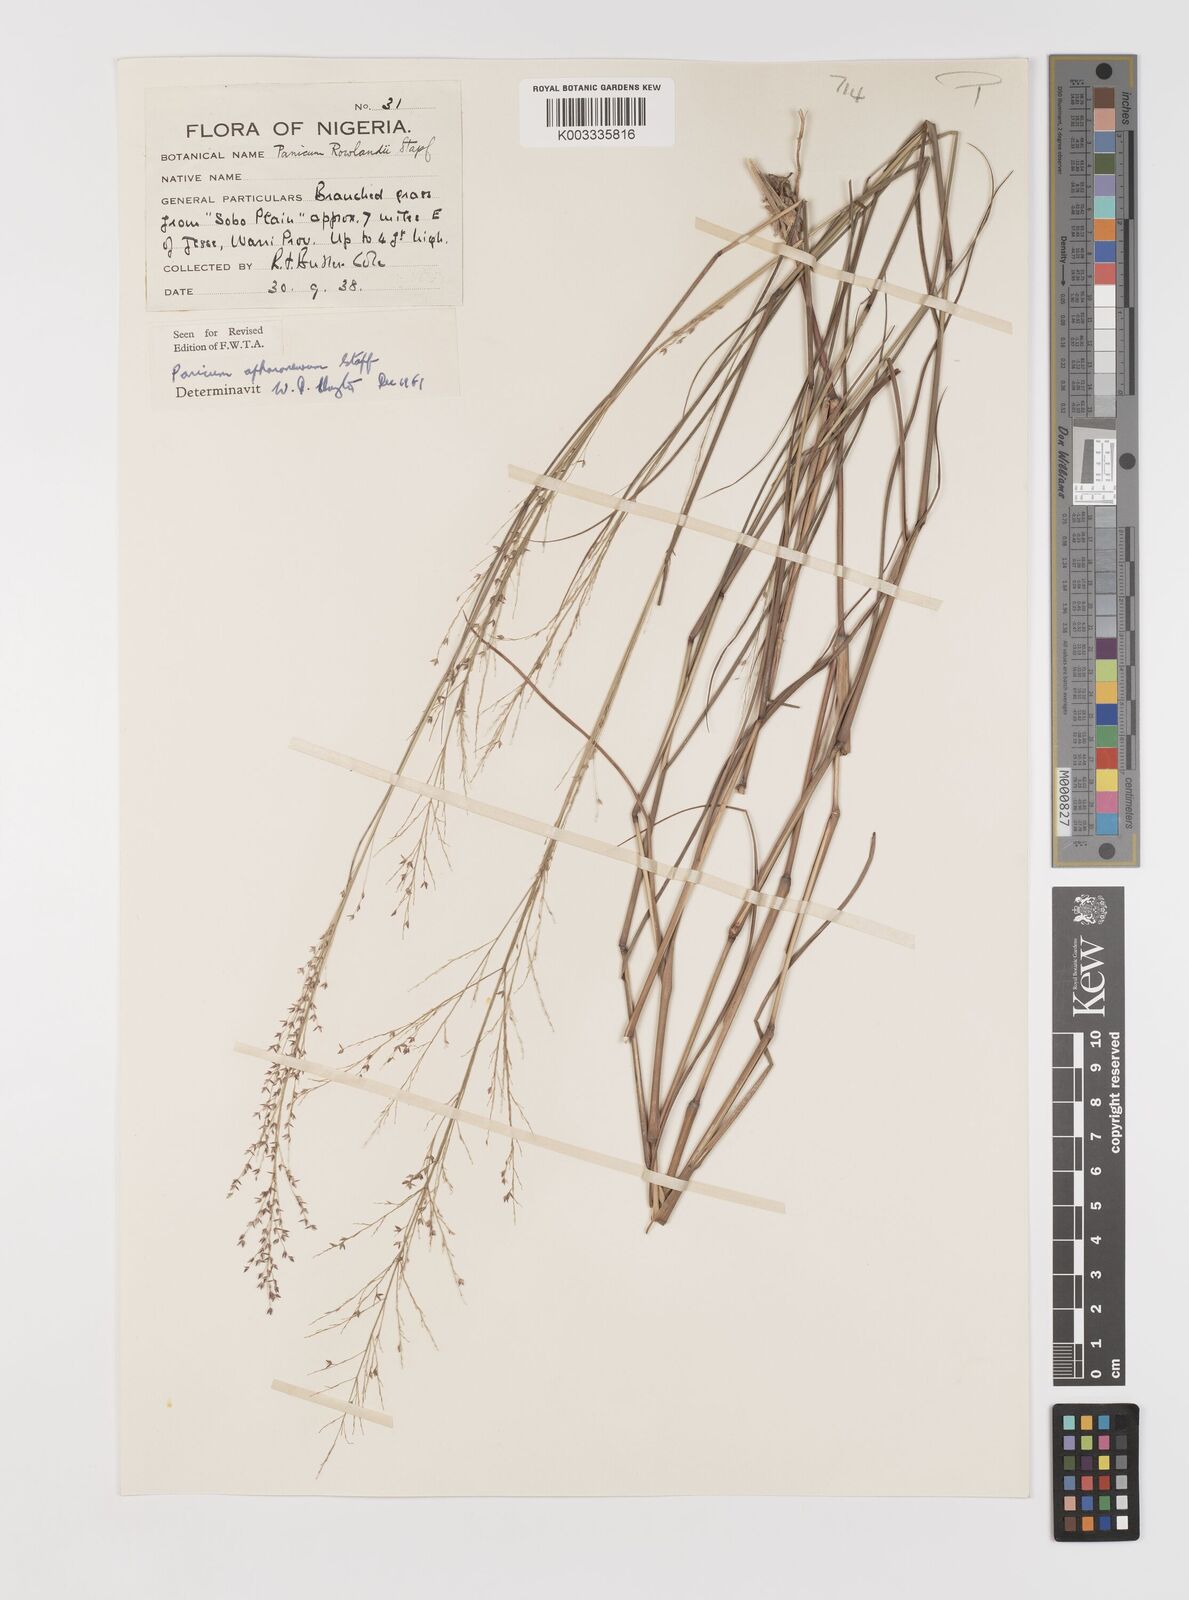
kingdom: Plantae
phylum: Tracheophyta
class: Liliopsida
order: Poales
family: Poaceae
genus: Panicum
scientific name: Panicum fluviicola
